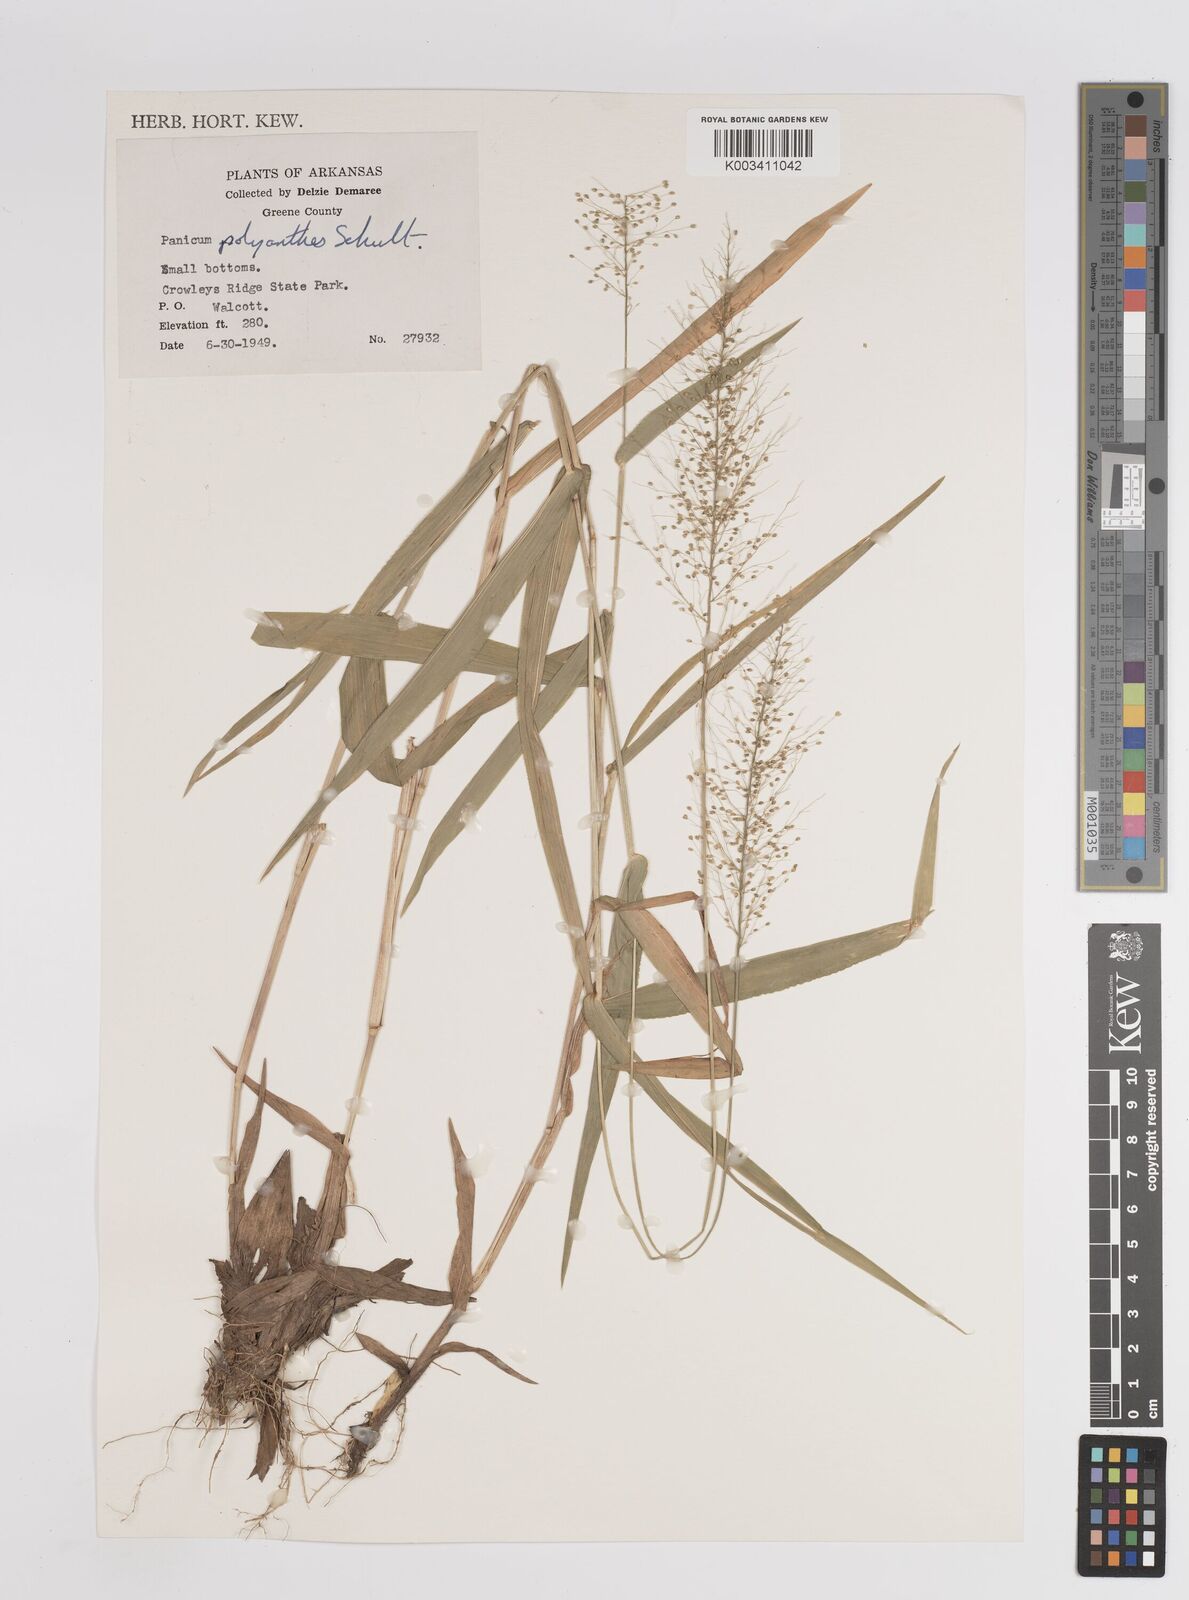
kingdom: Plantae
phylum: Tracheophyta
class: Liliopsida
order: Poales
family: Poaceae
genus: Dichanthelium
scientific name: Dichanthelium polyanthes
